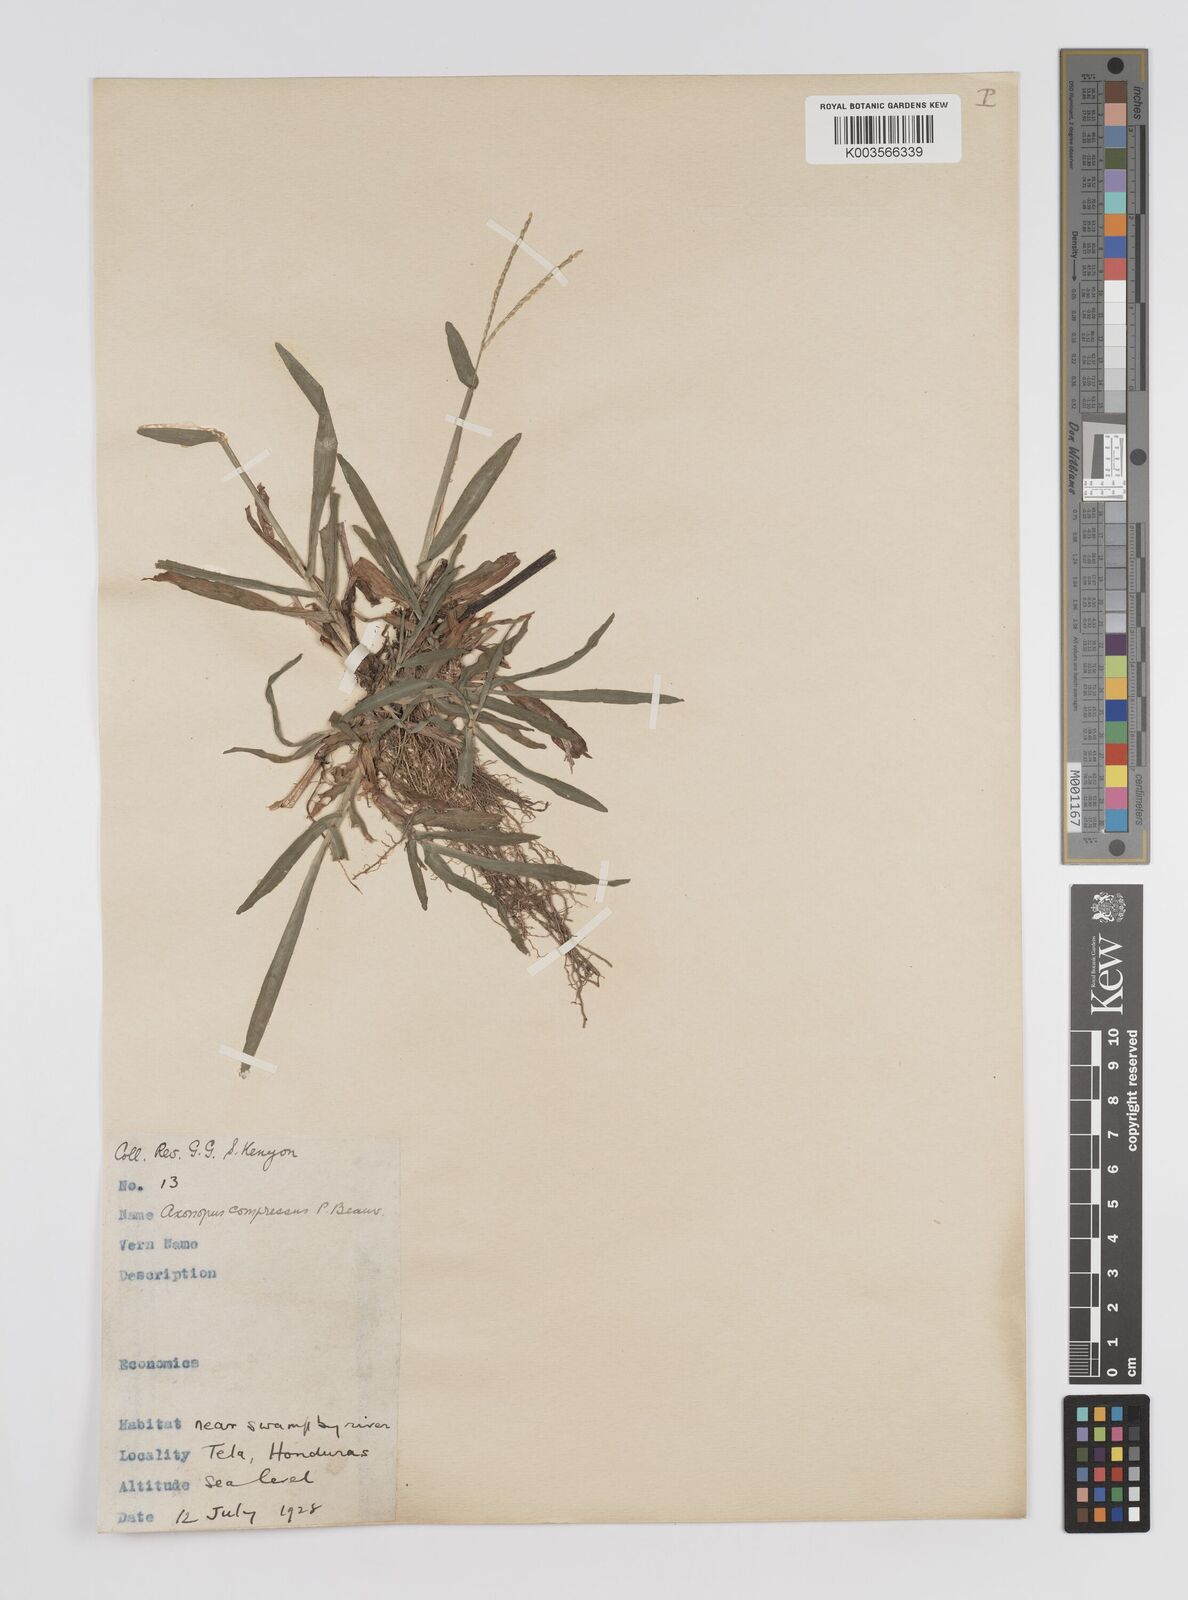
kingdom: Plantae
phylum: Tracheophyta
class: Liliopsida
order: Poales
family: Poaceae
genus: Axonopus
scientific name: Axonopus compressus
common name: American carpet grass
